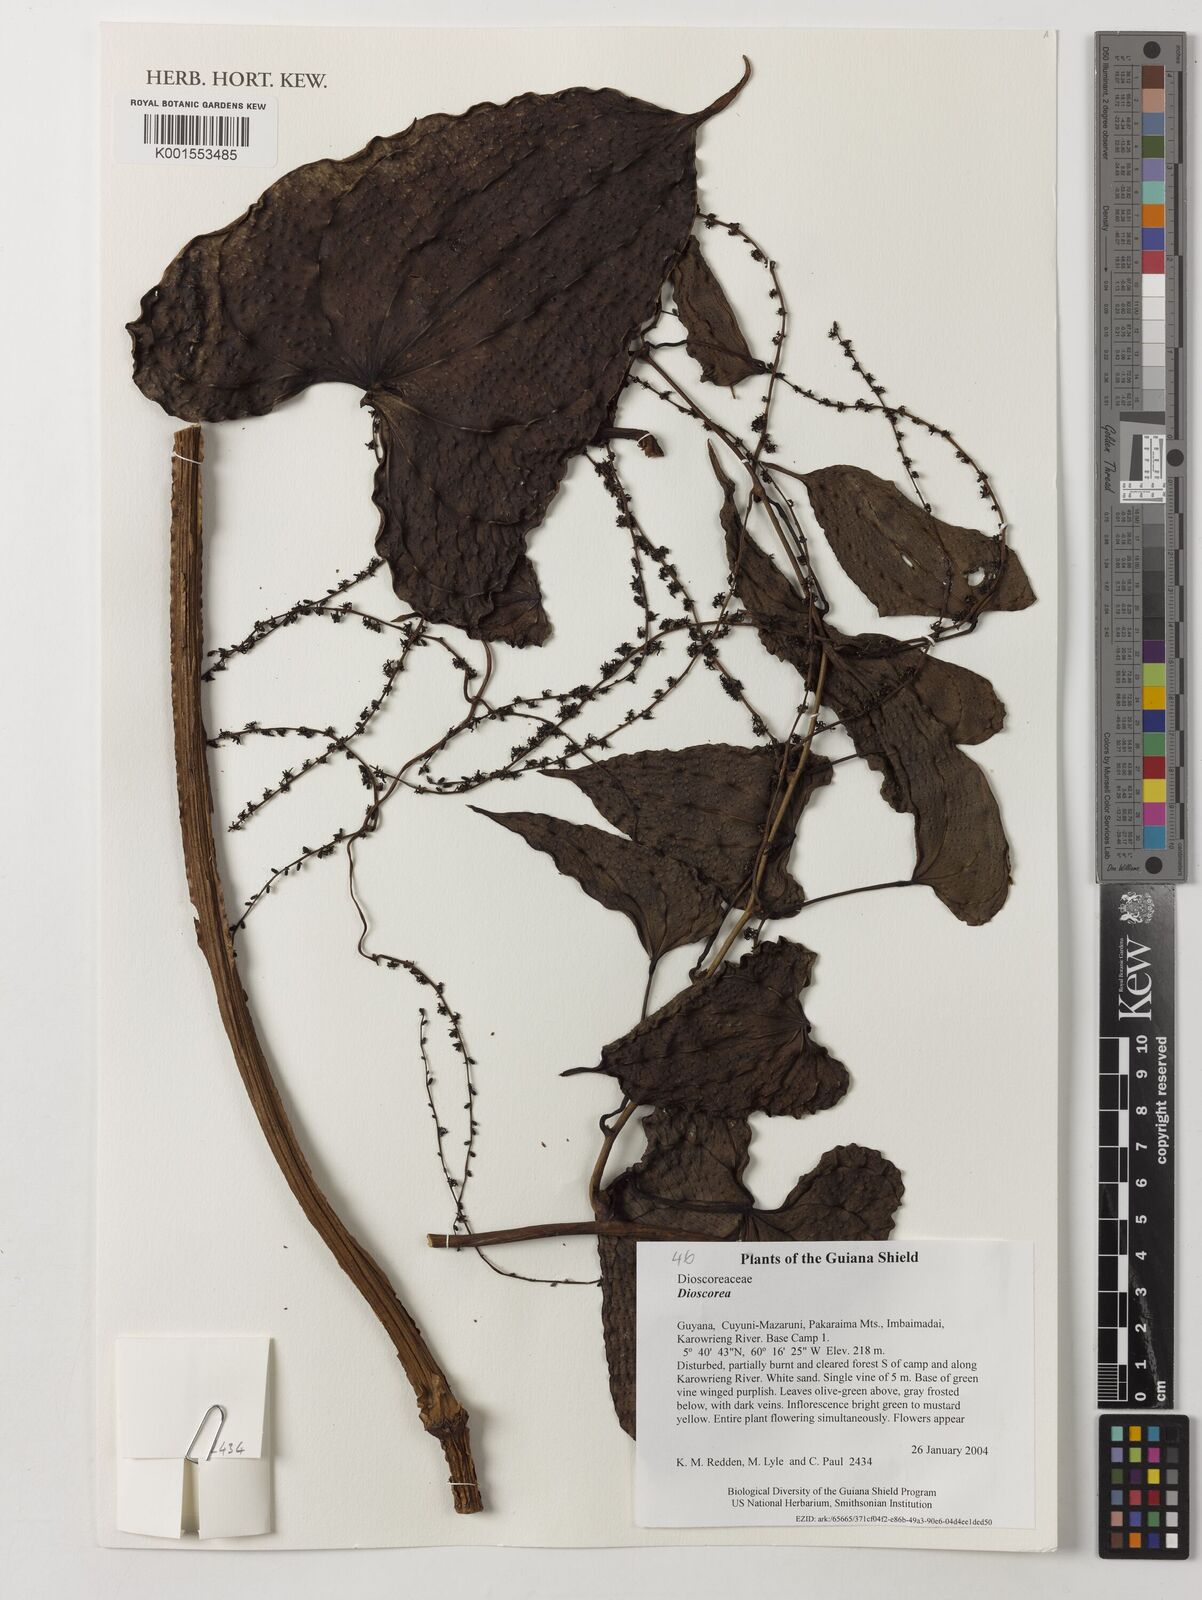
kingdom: Plantae
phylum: Tracheophyta
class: Liliopsida
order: Dioscoreales
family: Dioscoreaceae
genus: Dioscorea
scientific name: Dioscorea
